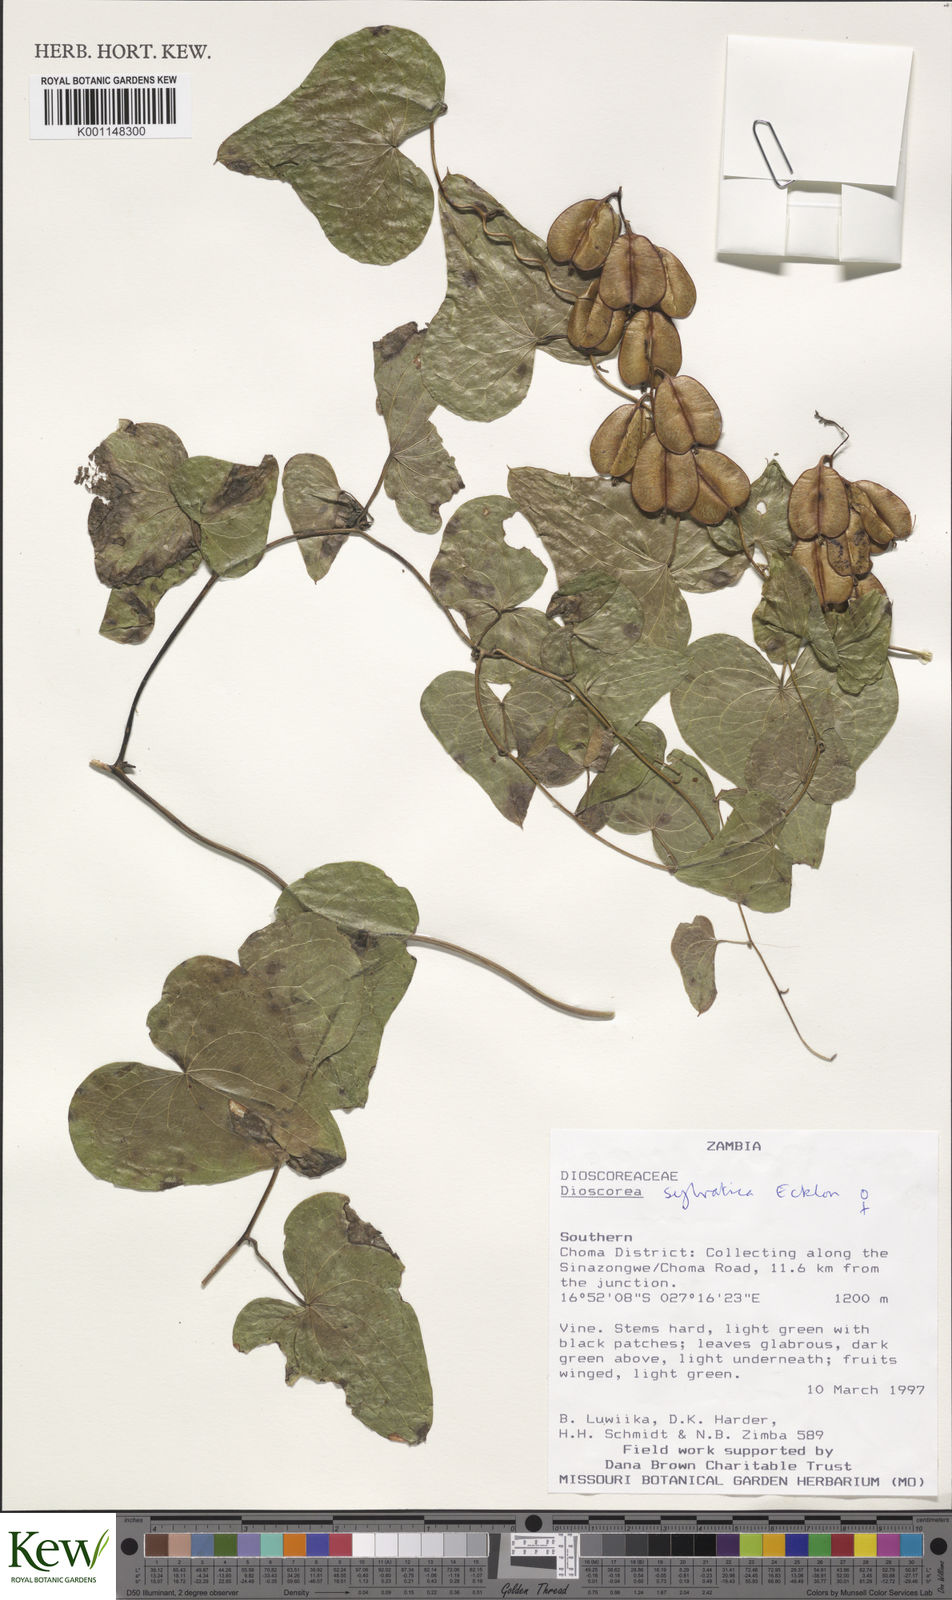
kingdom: Plantae
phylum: Tracheophyta
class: Liliopsida
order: Dioscoreales
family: Dioscoreaceae
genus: Dioscorea
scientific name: Dioscorea sylvatica
